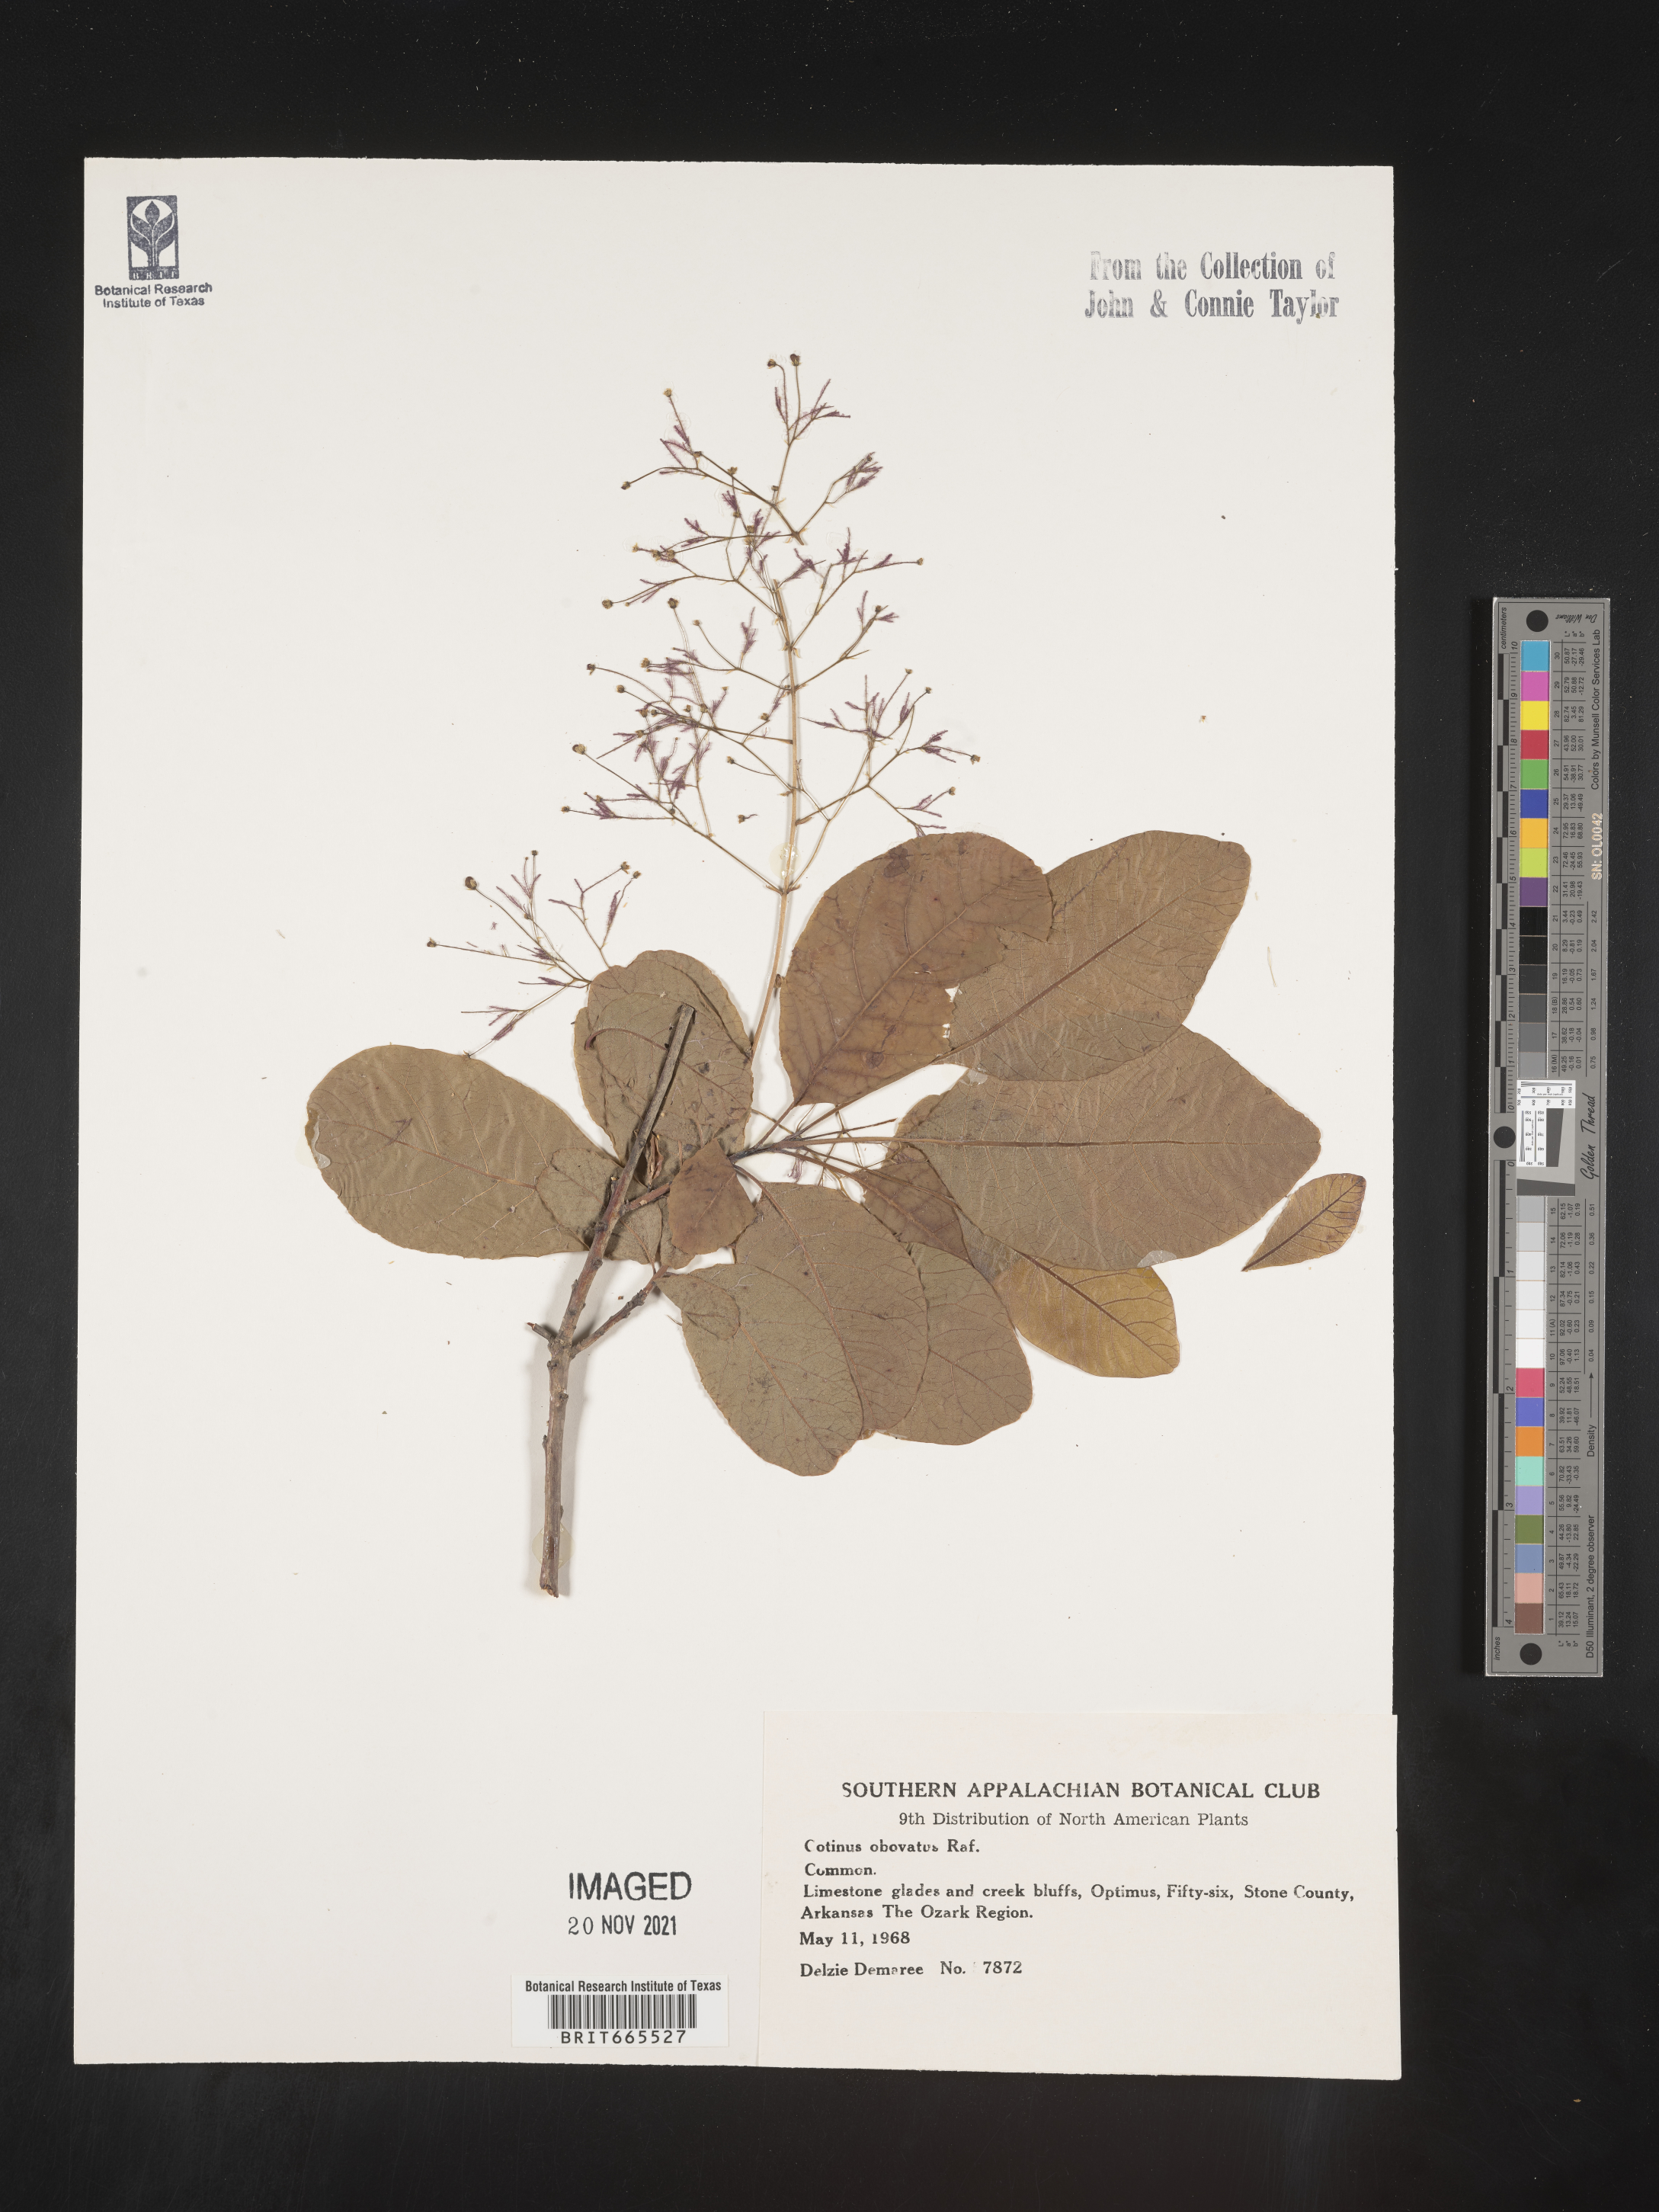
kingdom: Plantae
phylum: Tracheophyta
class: Magnoliopsida
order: Sapindales
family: Anacardiaceae
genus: Cotinus
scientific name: Cotinus obovatus
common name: Chittamwood
